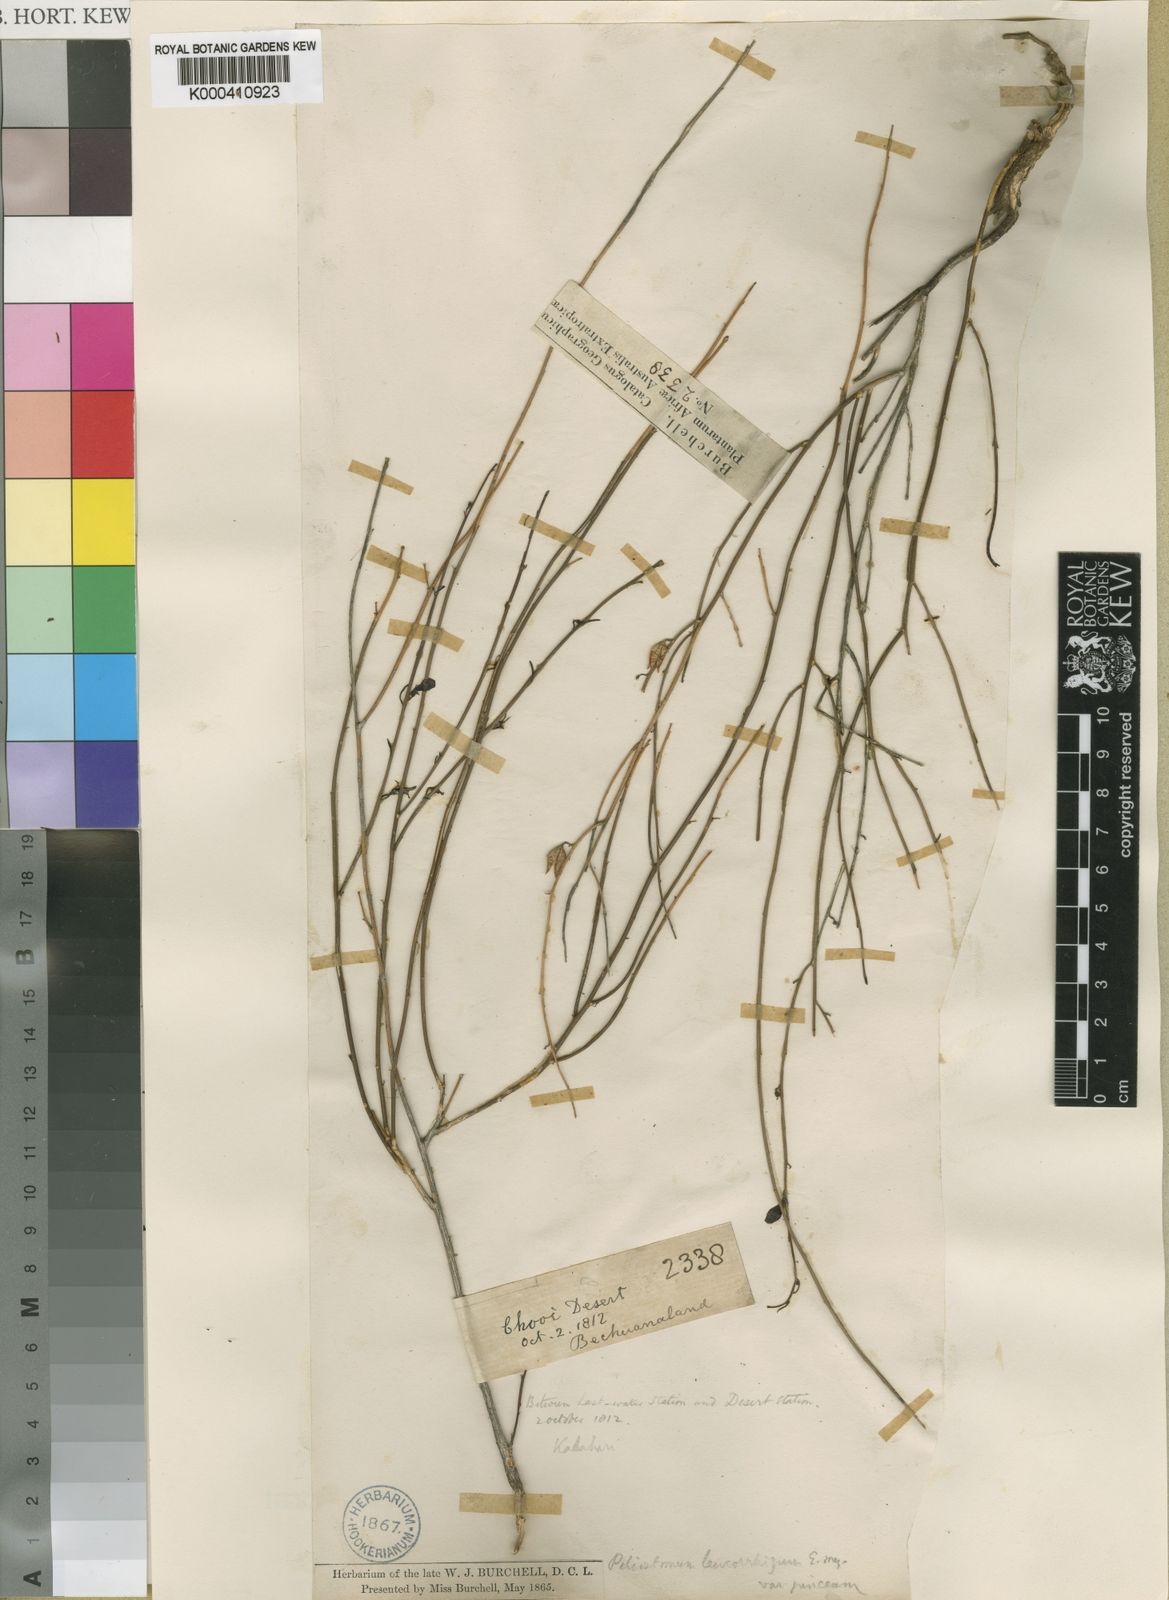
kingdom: Plantae
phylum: Tracheophyta
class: Magnoliopsida
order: Lamiales
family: Scrophulariaceae
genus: Peliostomum
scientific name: Peliostomum junceum
